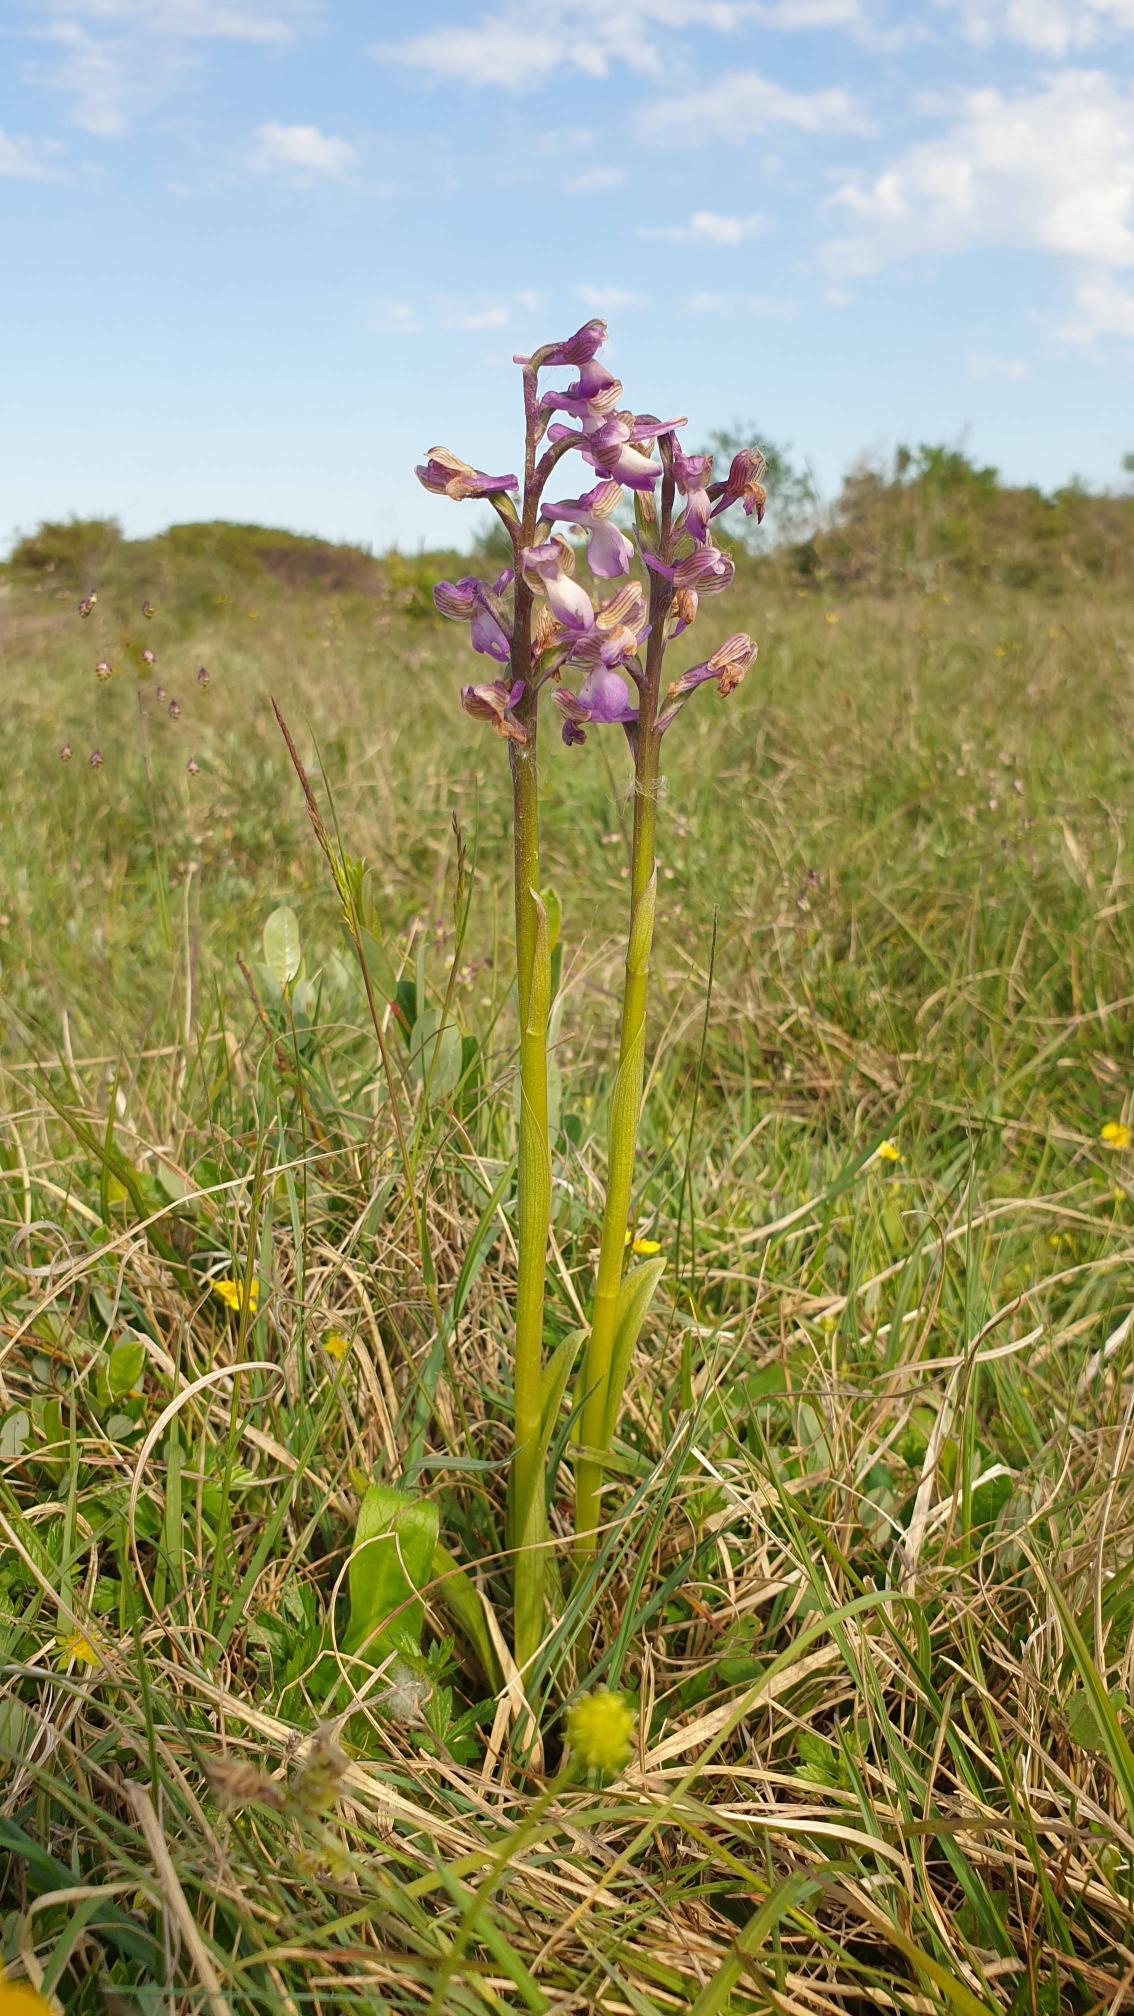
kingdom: Plantae
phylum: Tracheophyta
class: Liliopsida
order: Asparagales
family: Orchidaceae
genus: Anacamptis
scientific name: Anacamptis morio
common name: Salepgøgeurt
